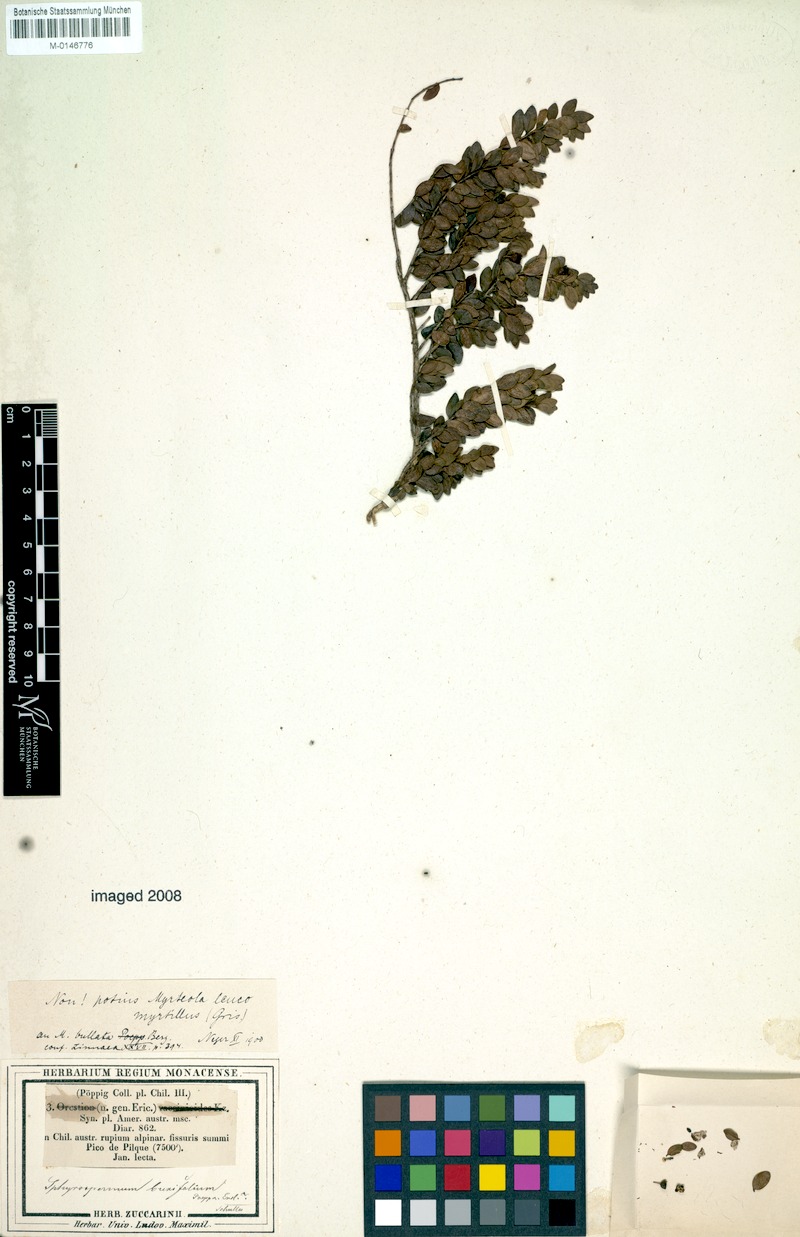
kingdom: Plantae
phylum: Tracheophyta
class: Magnoliopsida
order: Myrtales
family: Myrtaceae
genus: Myrteola
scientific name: Myrteola nummularia
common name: Cranberry-myrtle
